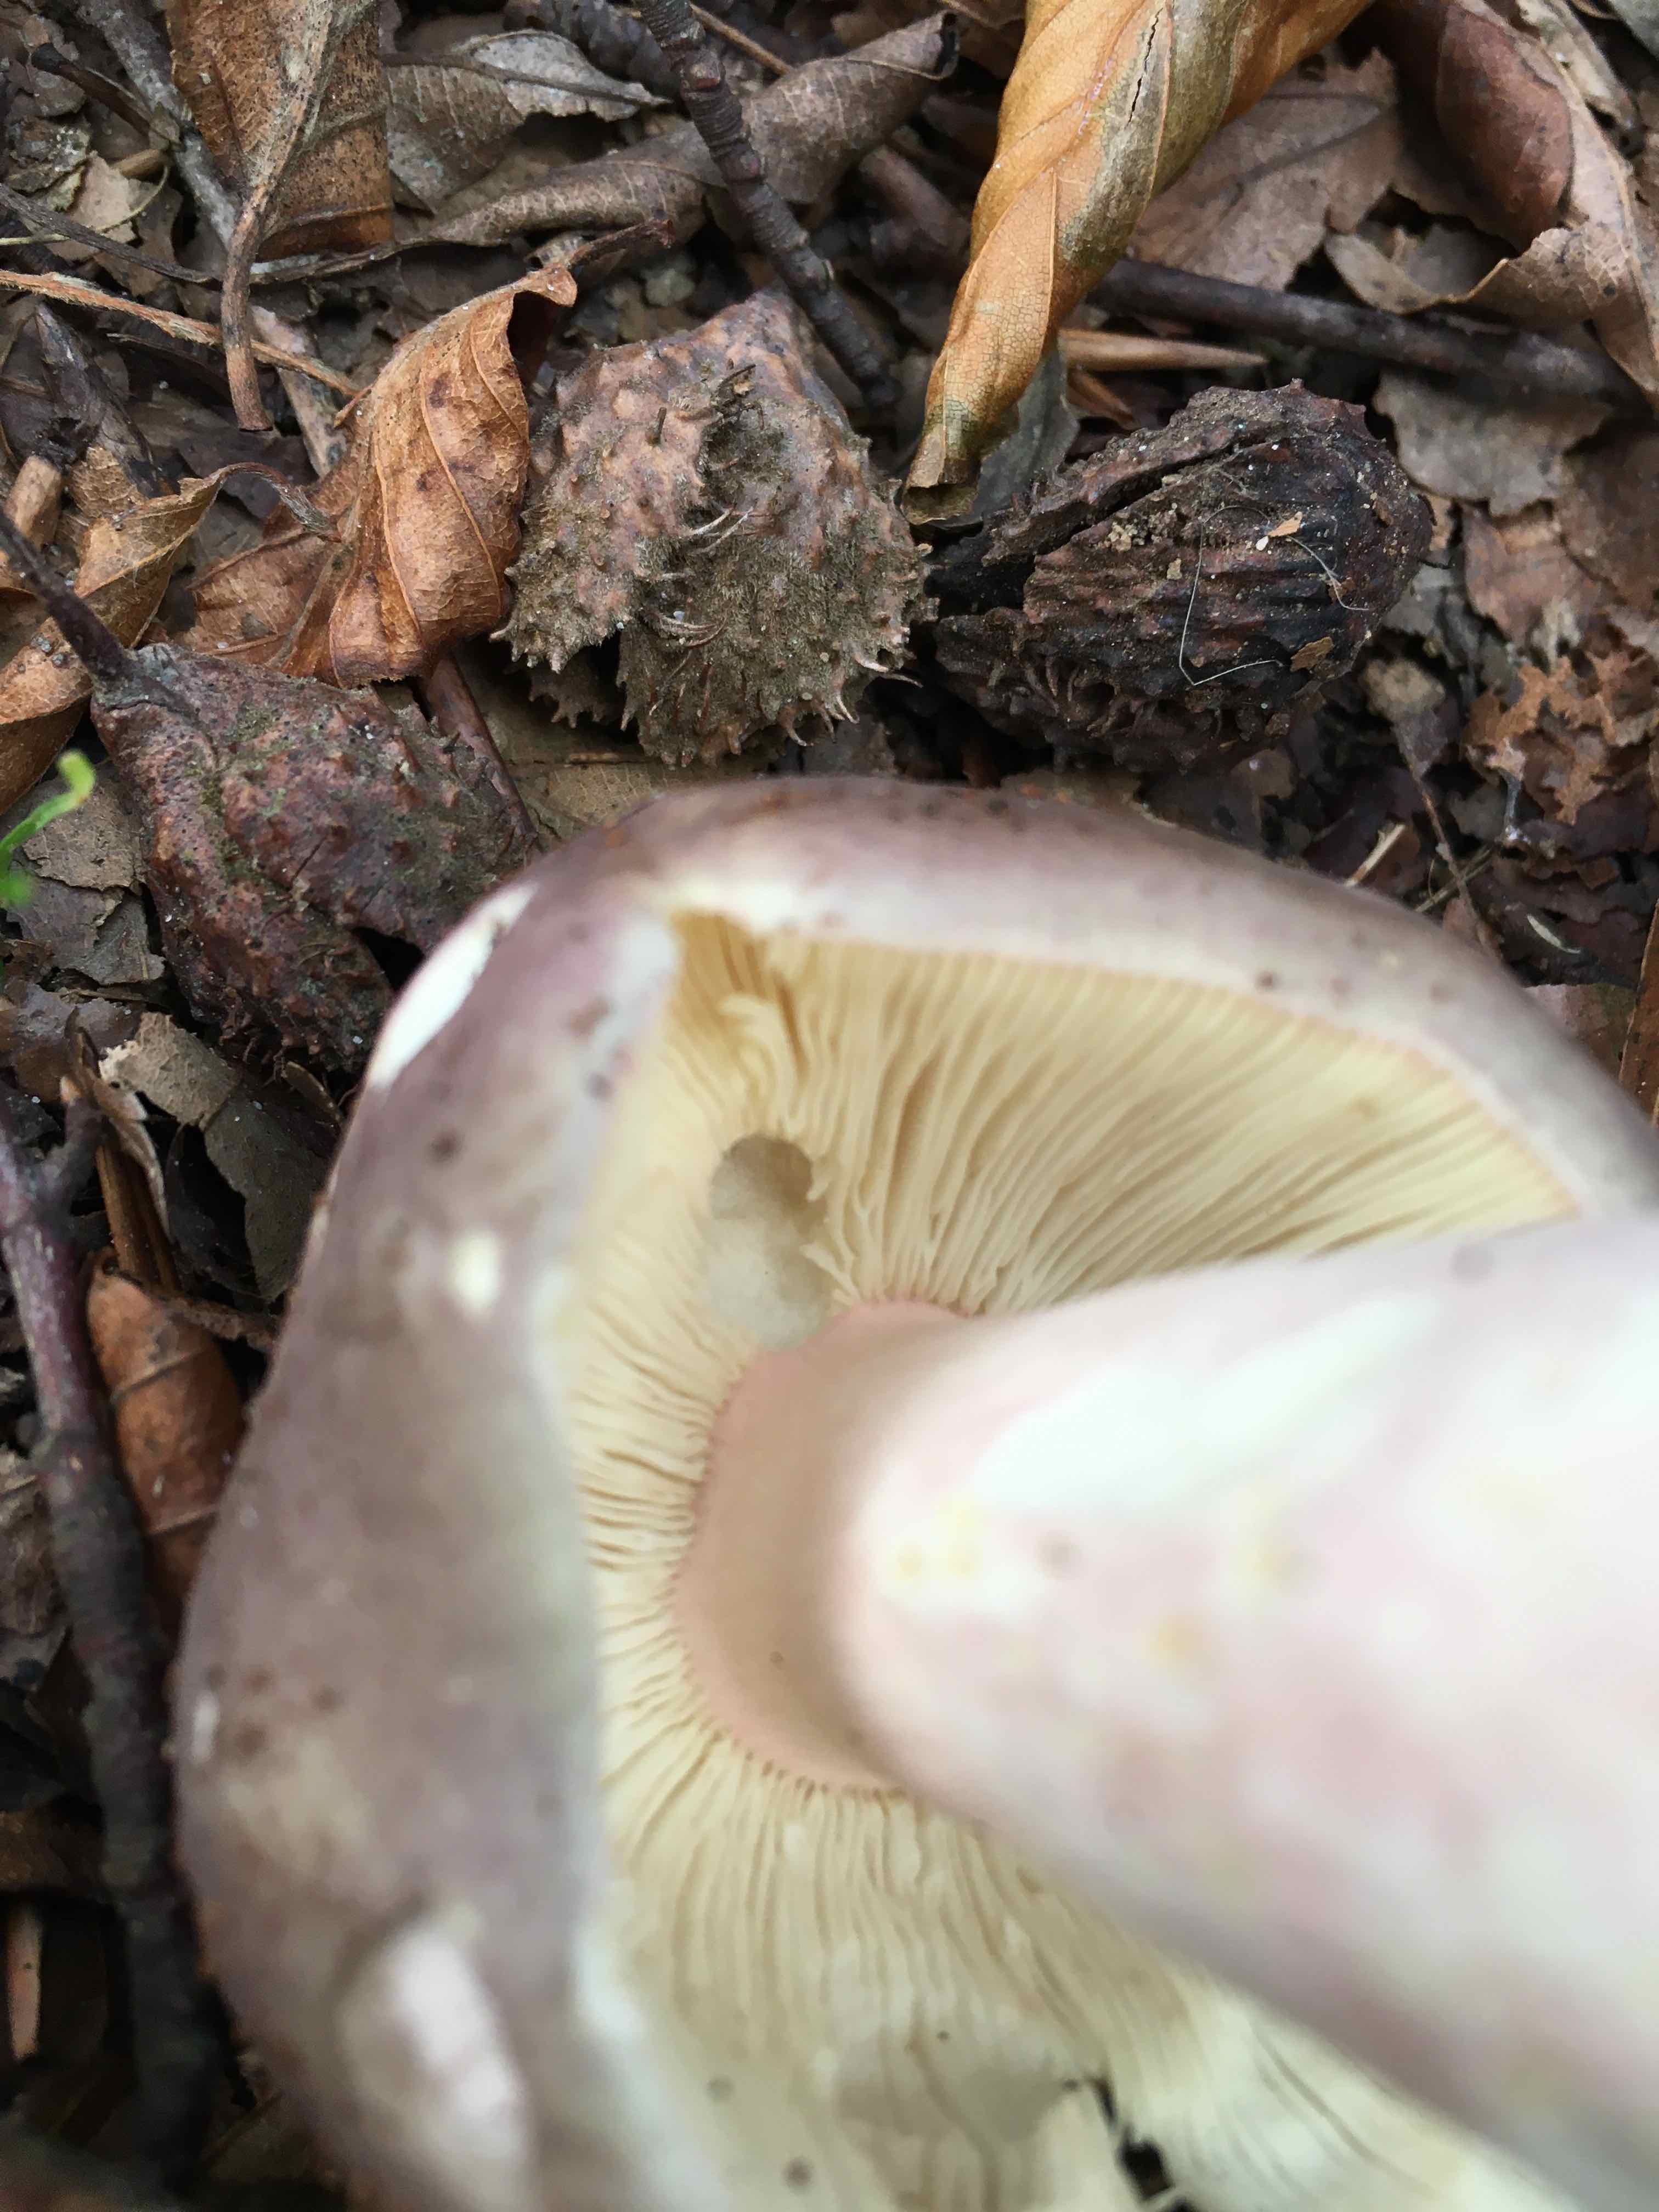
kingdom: Fungi
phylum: Basidiomycota
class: Agaricomycetes
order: Russulales
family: Russulaceae
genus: Russula
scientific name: Russula olivacea
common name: stor skørhat
